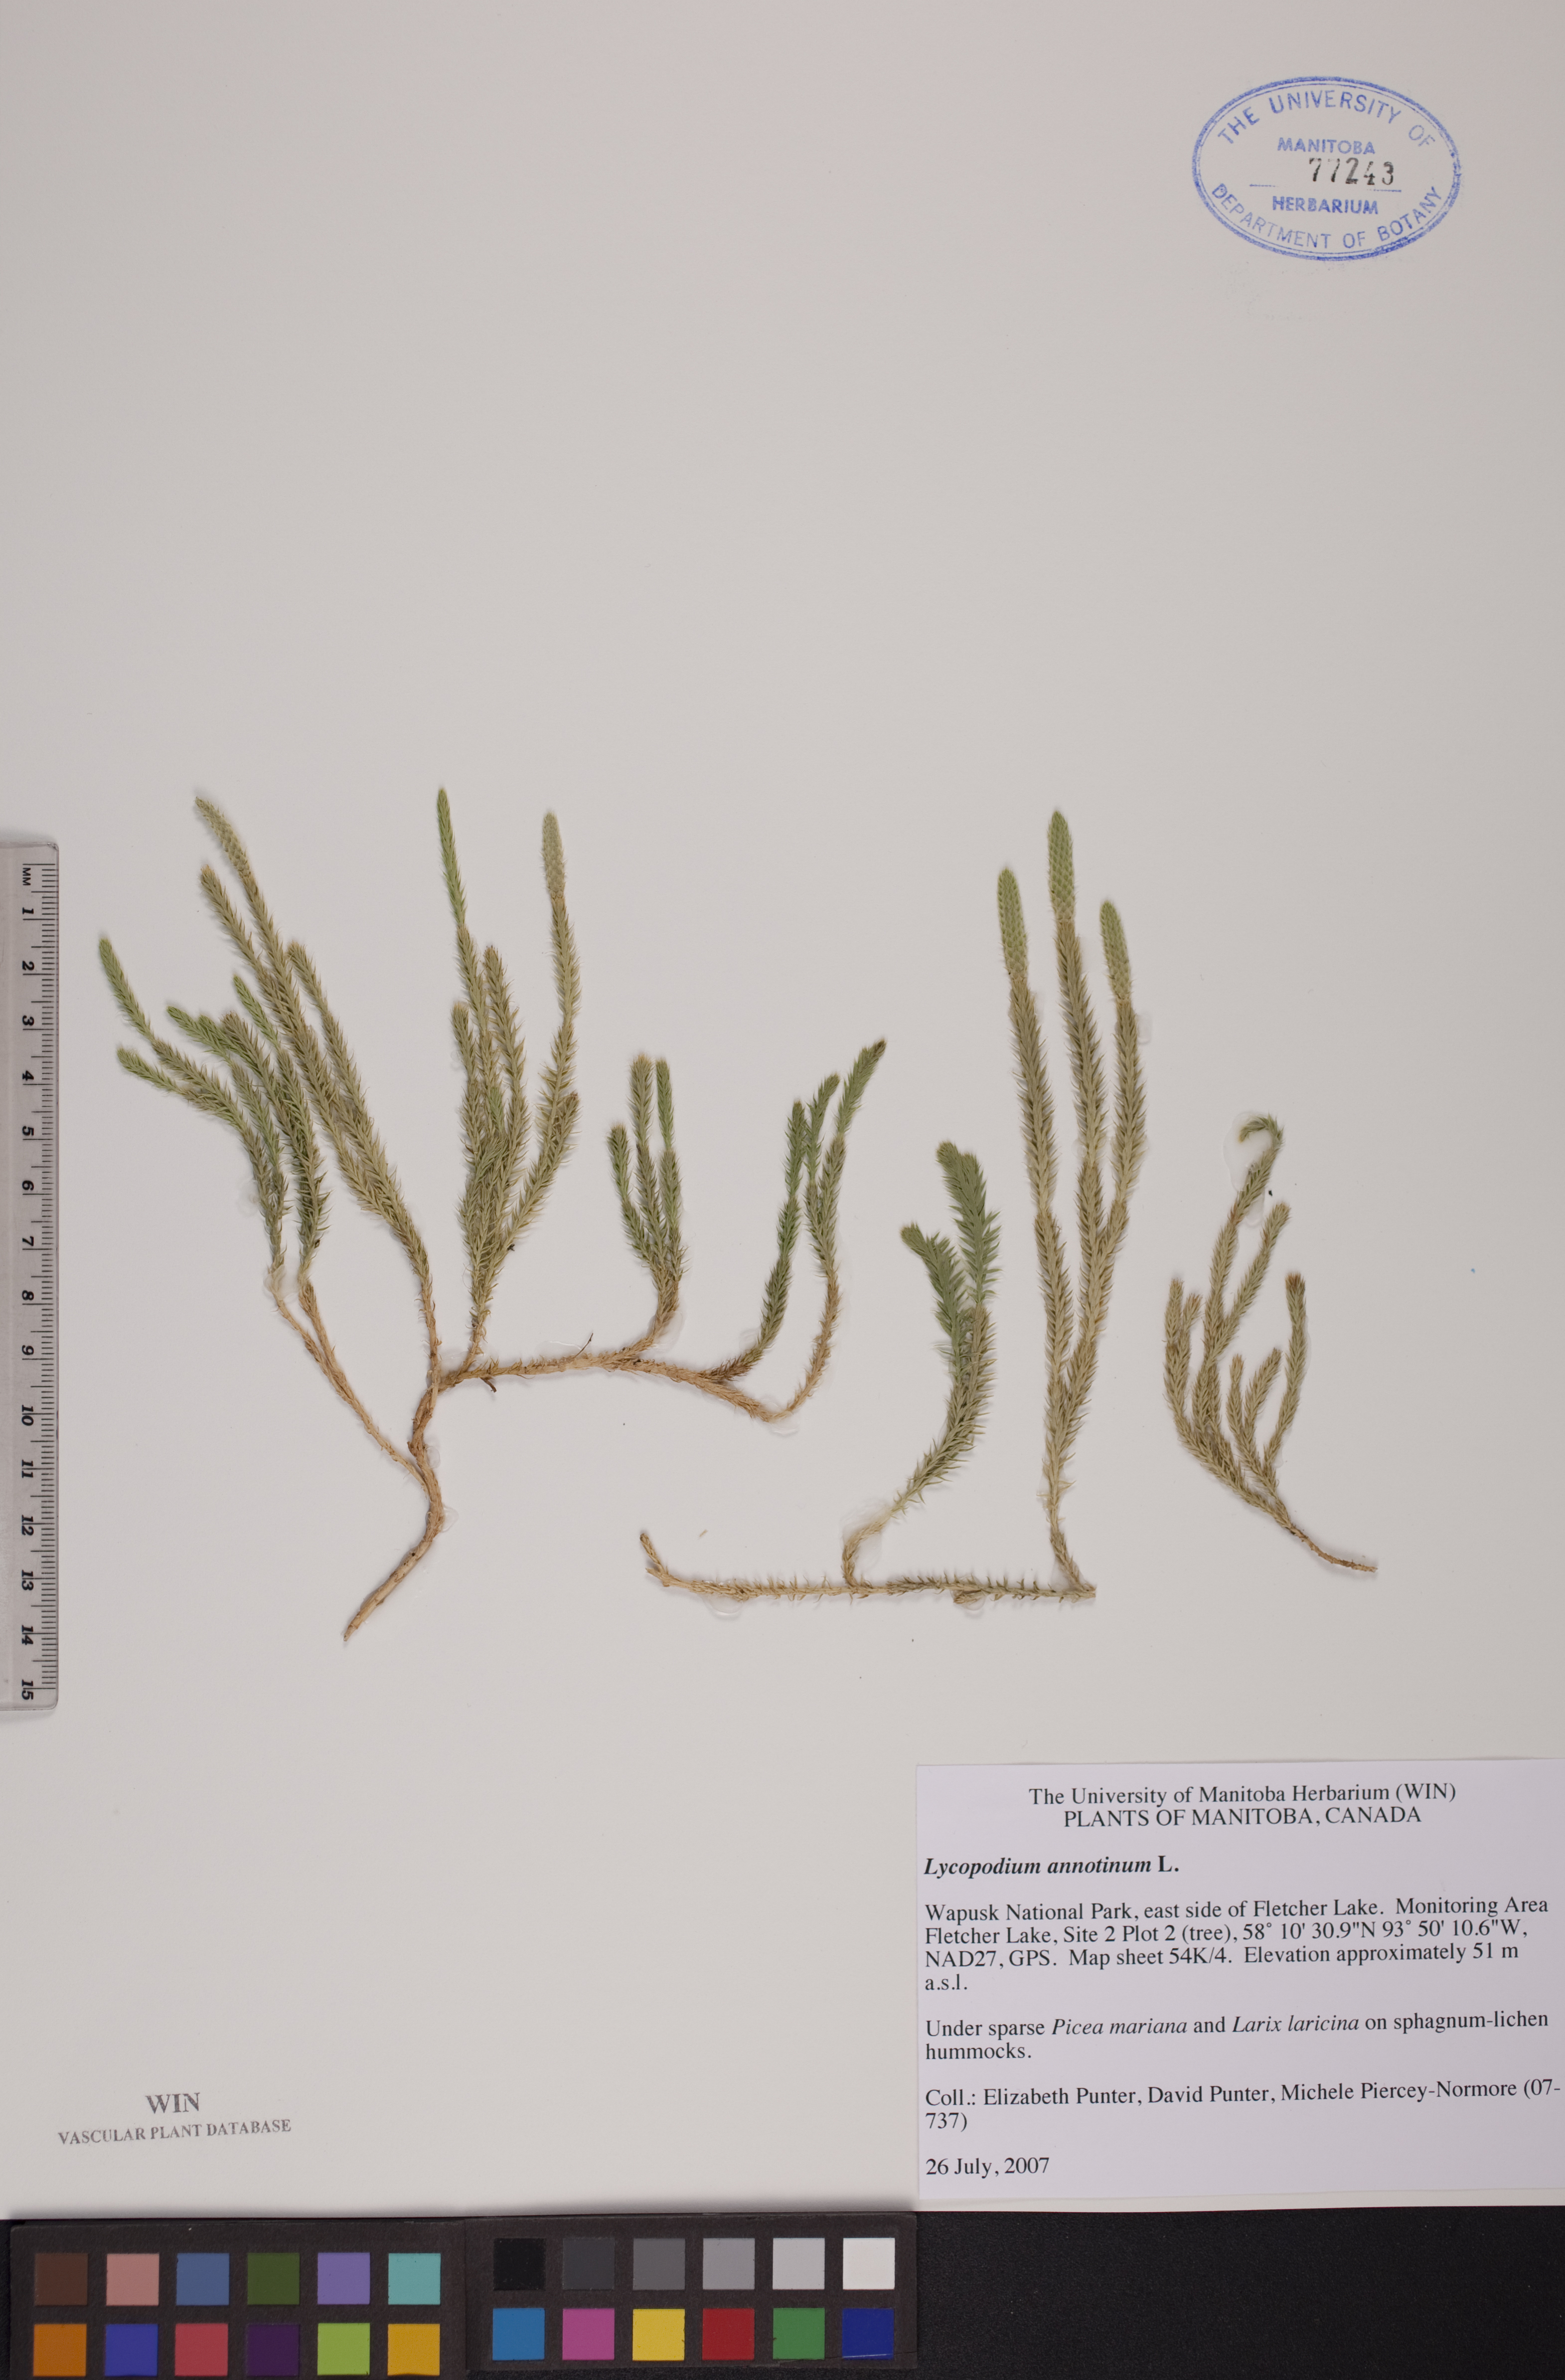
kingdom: Plantae
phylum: Tracheophyta
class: Lycopodiopsida
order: Lycopodiales
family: Lycopodiaceae
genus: Spinulum
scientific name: Spinulum annotinum
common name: Interrupted club-moss
